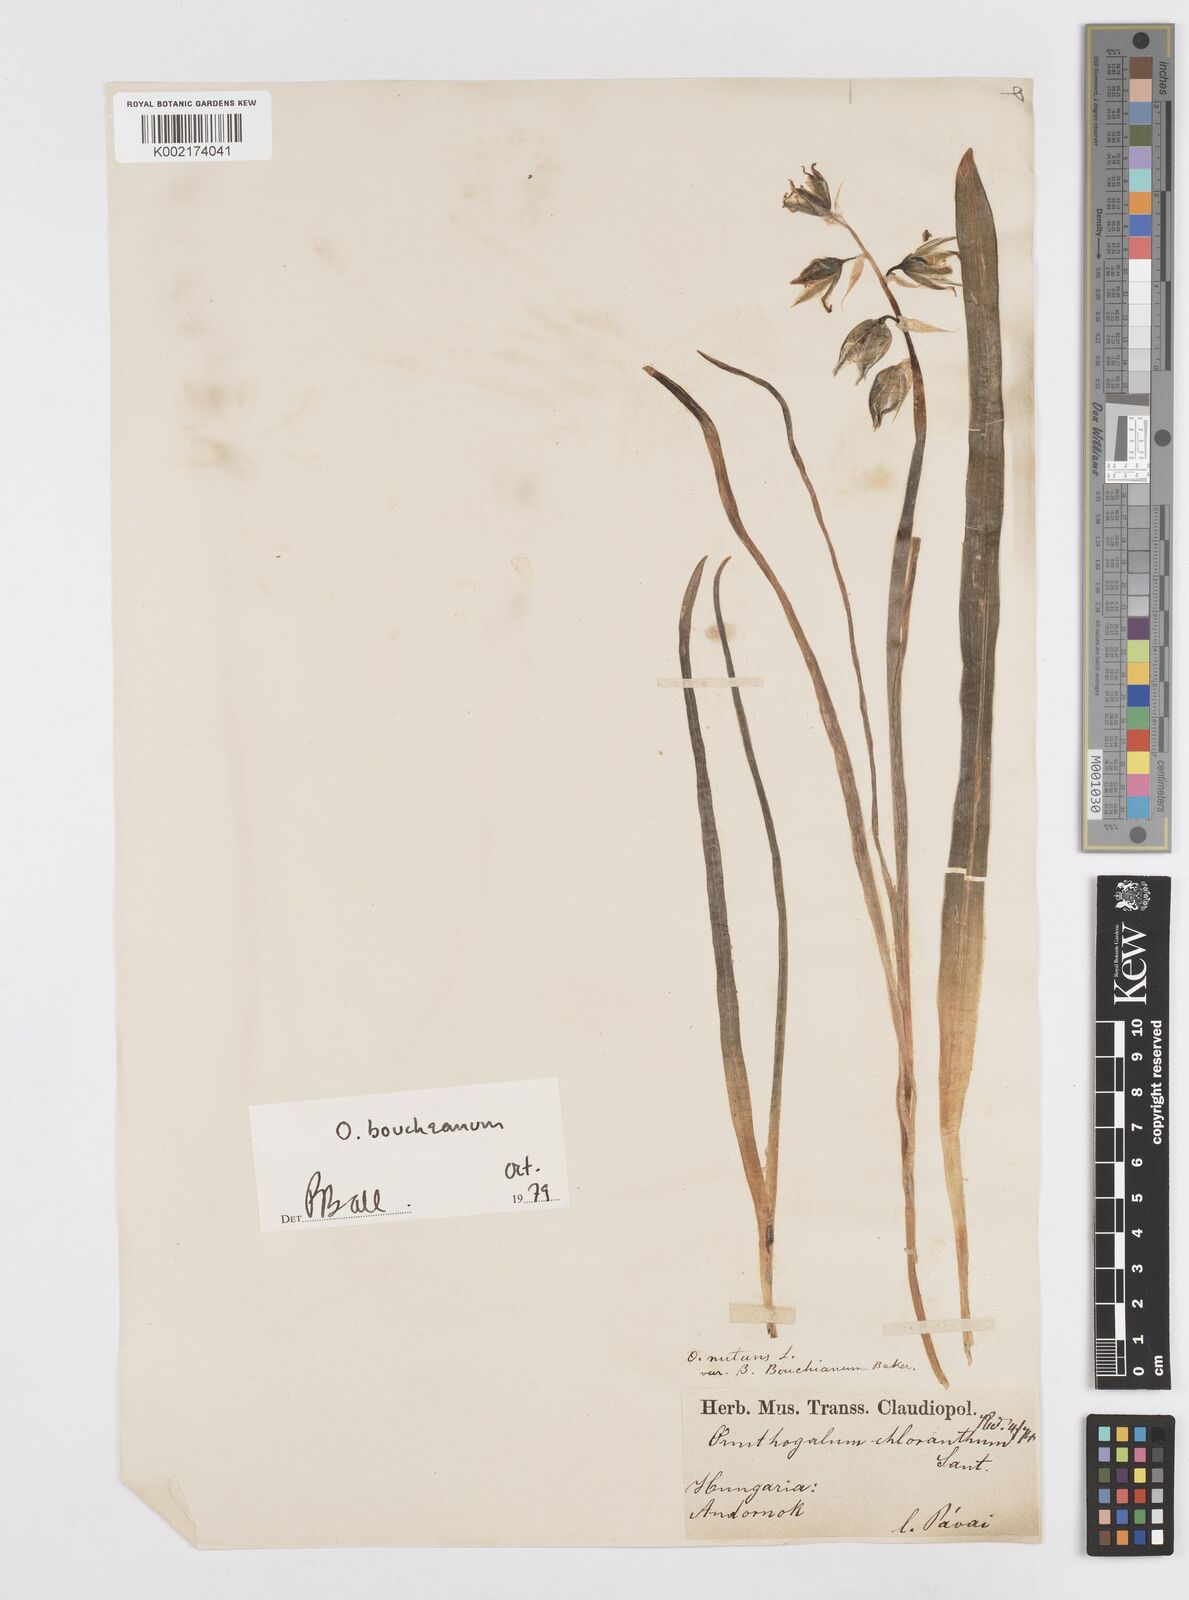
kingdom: Plantae
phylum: Tracheophyta
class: Liliopsida
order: Asparagales
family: Asparagaceae
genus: Ornithogalum
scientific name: Ornithogalum boucheanum
